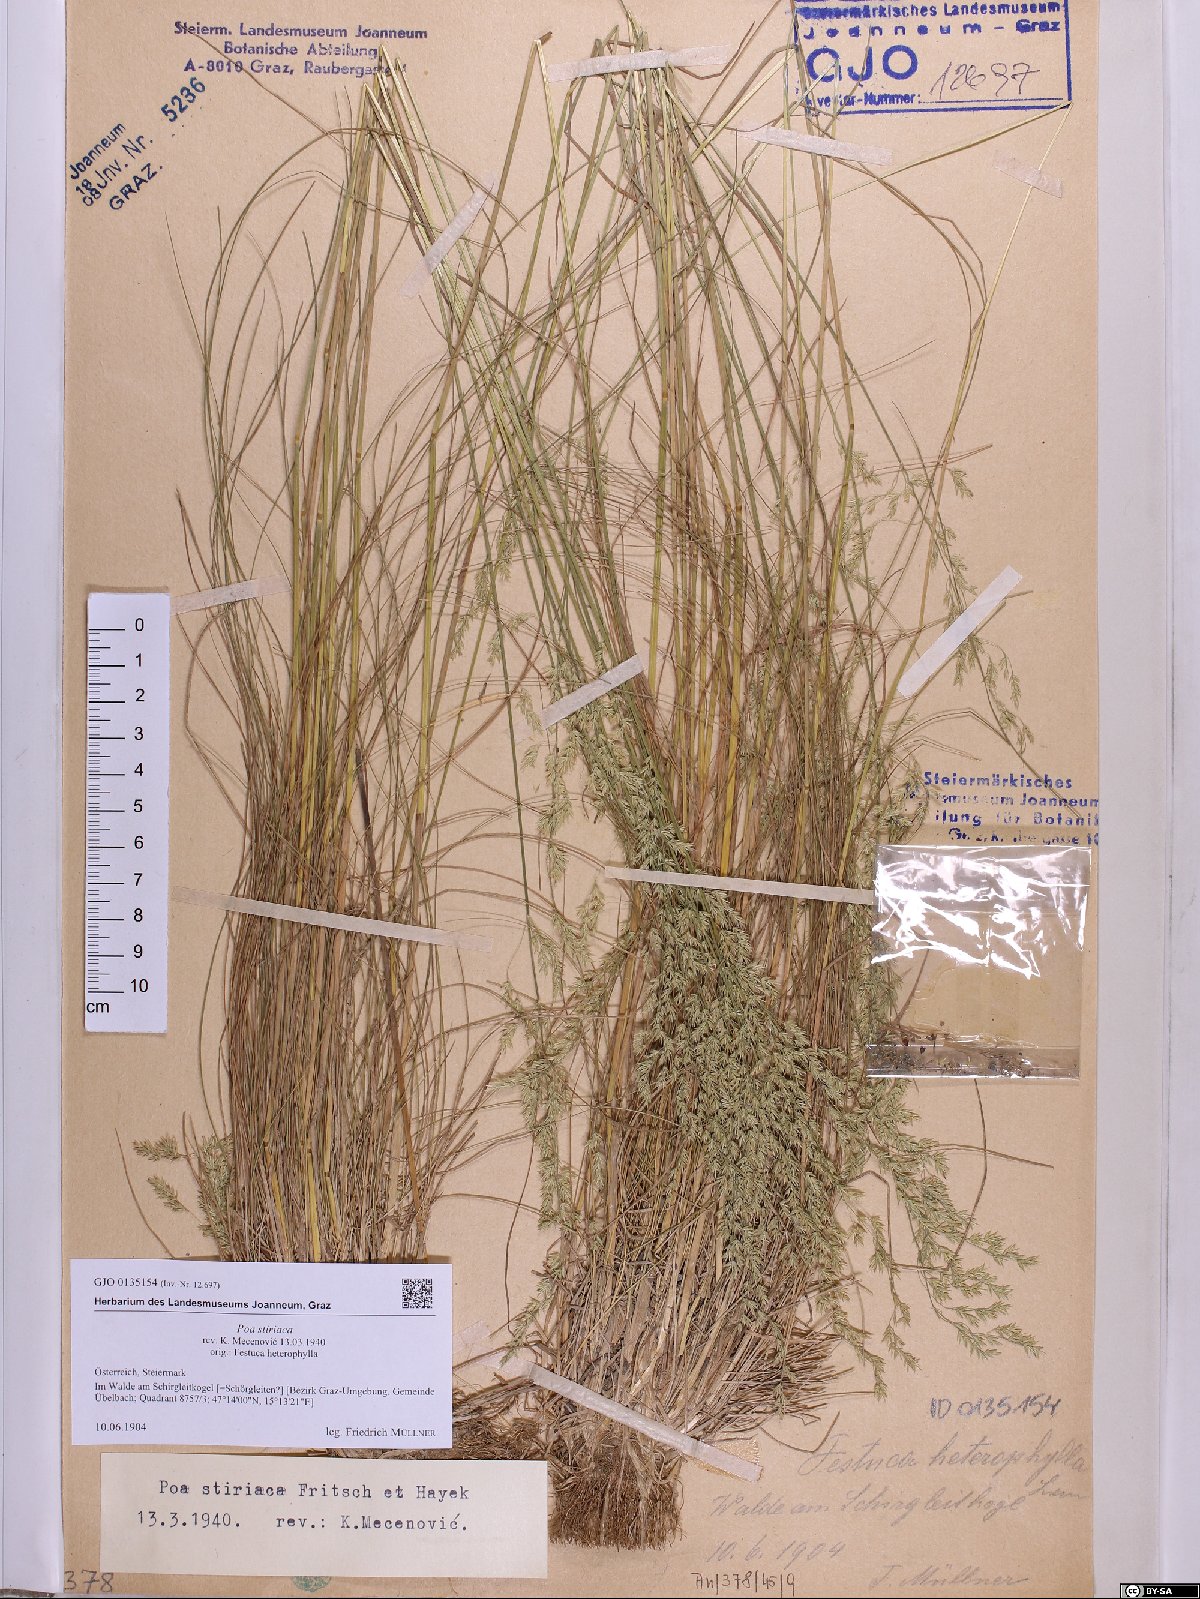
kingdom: Plantae
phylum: Tracheophyta
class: Liliopsida
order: Poales
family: Poaceae
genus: Poa
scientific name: Poa stiriaca
